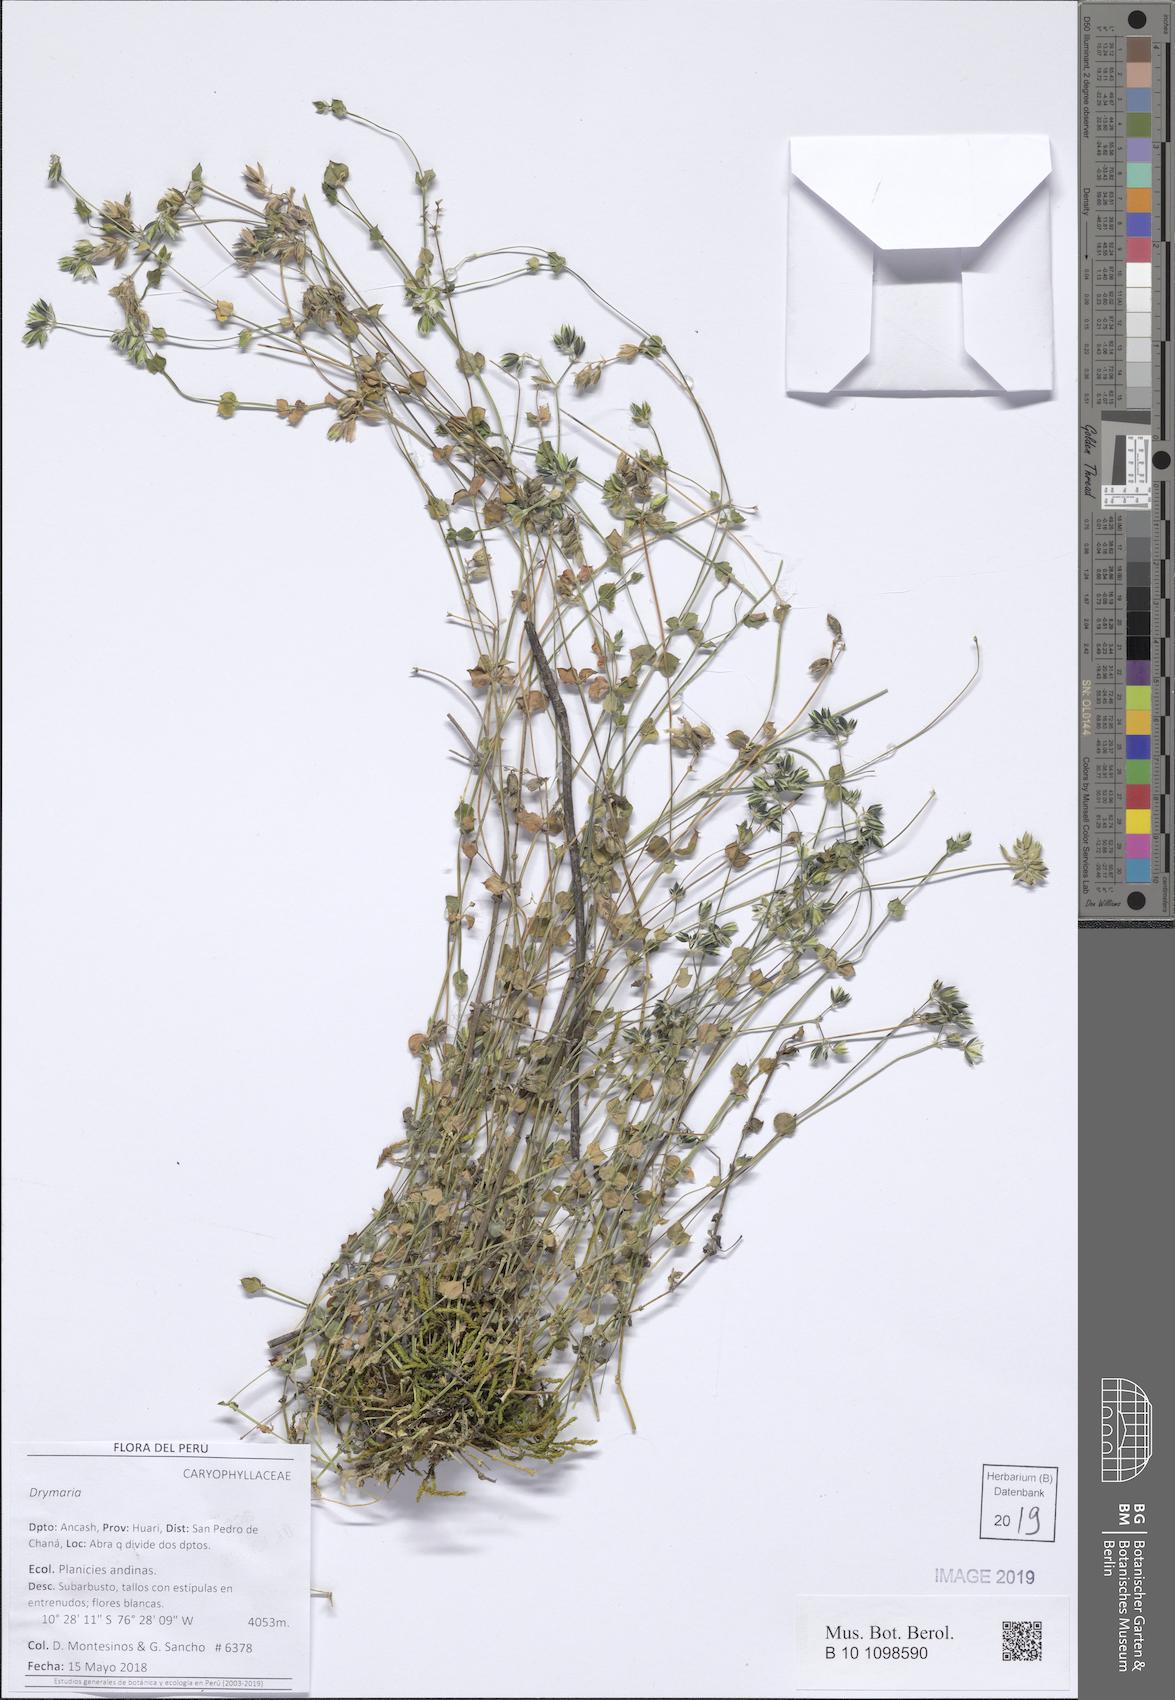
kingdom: Plantae
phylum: Tracheophyta
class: Magnoliopsida
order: Caryophyllales
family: Caryophyllaceae
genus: Drymaria
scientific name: Drymaria
